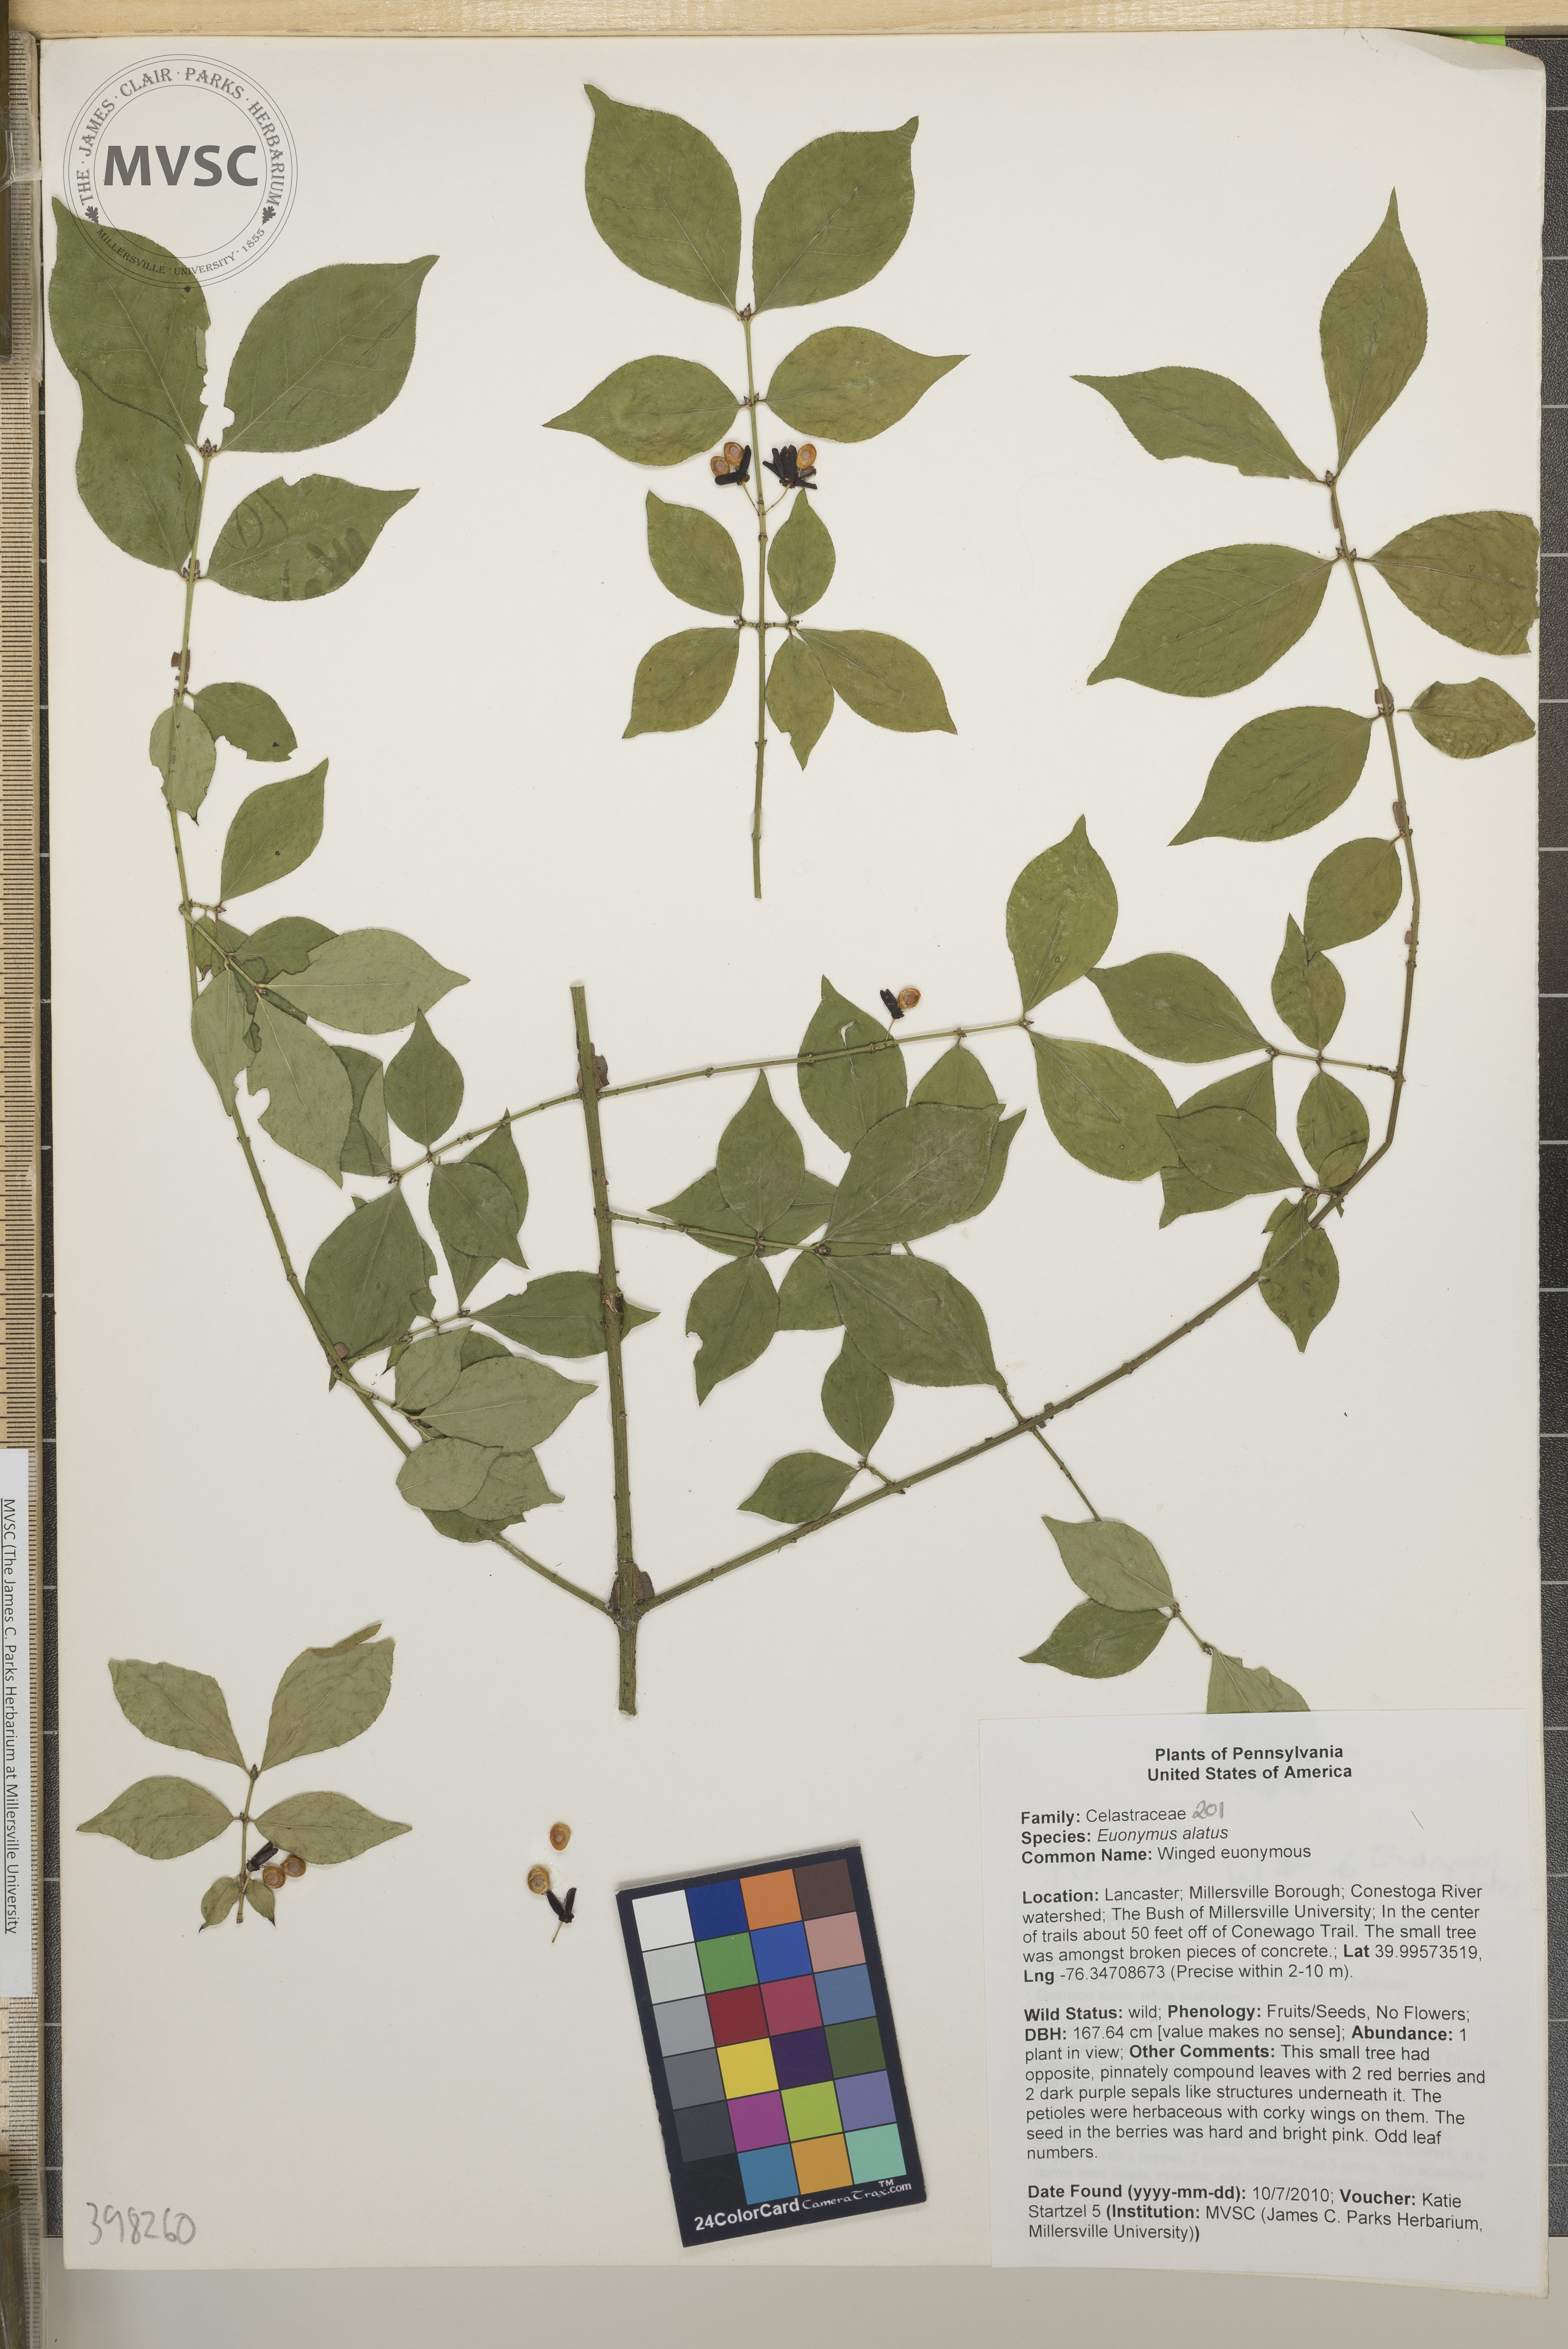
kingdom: Plantae
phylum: Tracheophyta
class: Magnoliopsida
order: Celastrales
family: Celastraceae
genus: Euonymus
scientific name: Euonymus alatus
